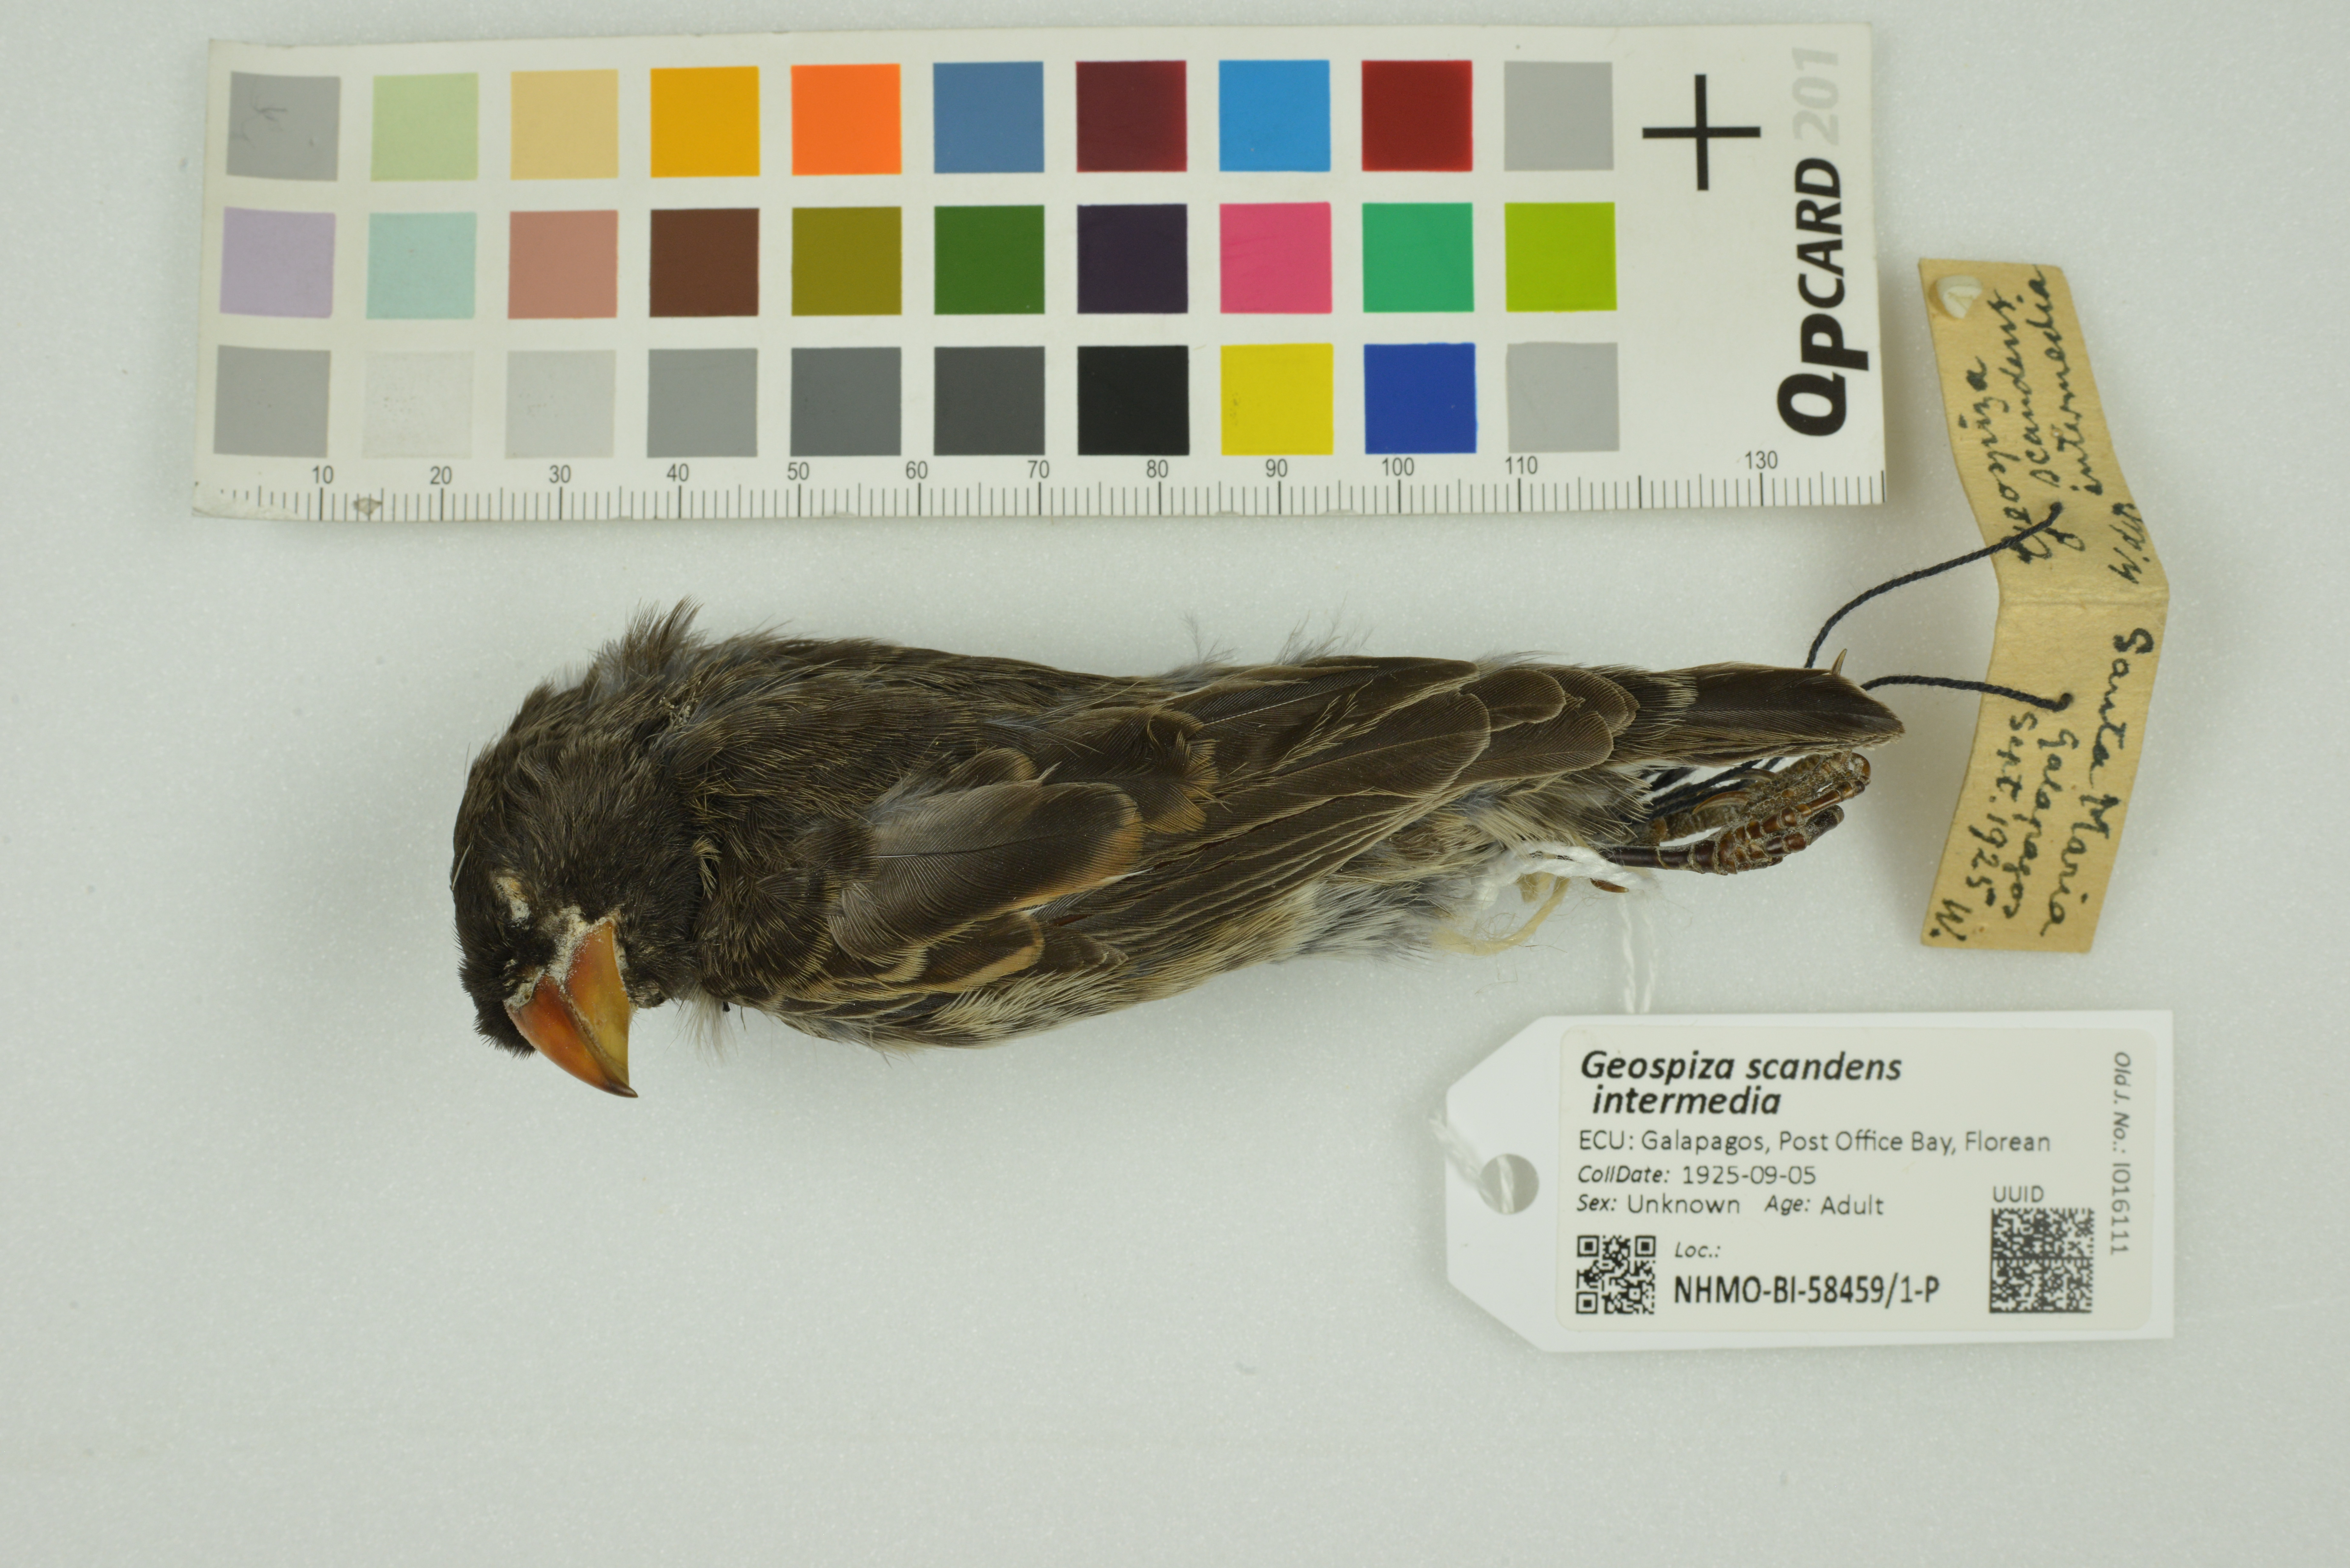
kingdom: Animalia
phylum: Chordata
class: Aves
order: Passeriformes
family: Thraupidae
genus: Geospiza
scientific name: Geospiza scandens
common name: Common cactus-finch
